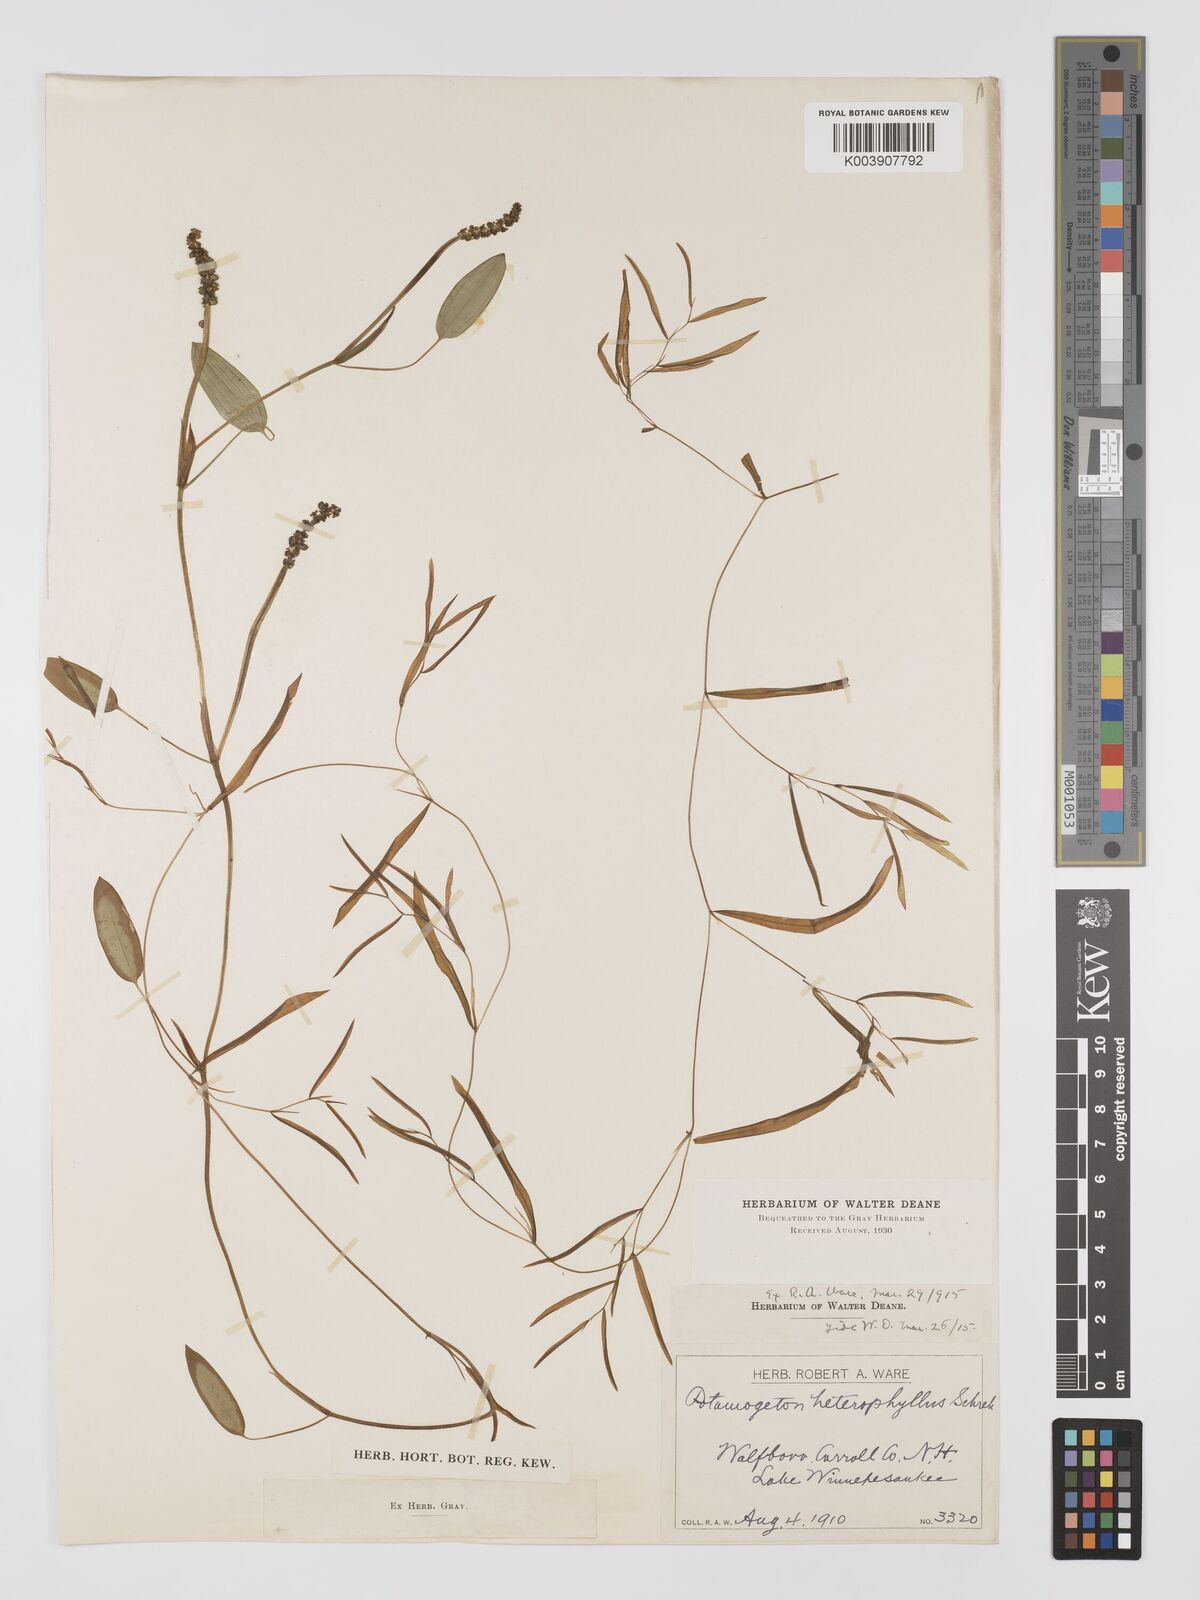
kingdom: Plantae
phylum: Tracheophyta
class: Liliopsida
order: Alismatales
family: Potamogetonaceae
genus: Potamogeton
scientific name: Potamogeton gramineus
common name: Various-leaved pondweed
